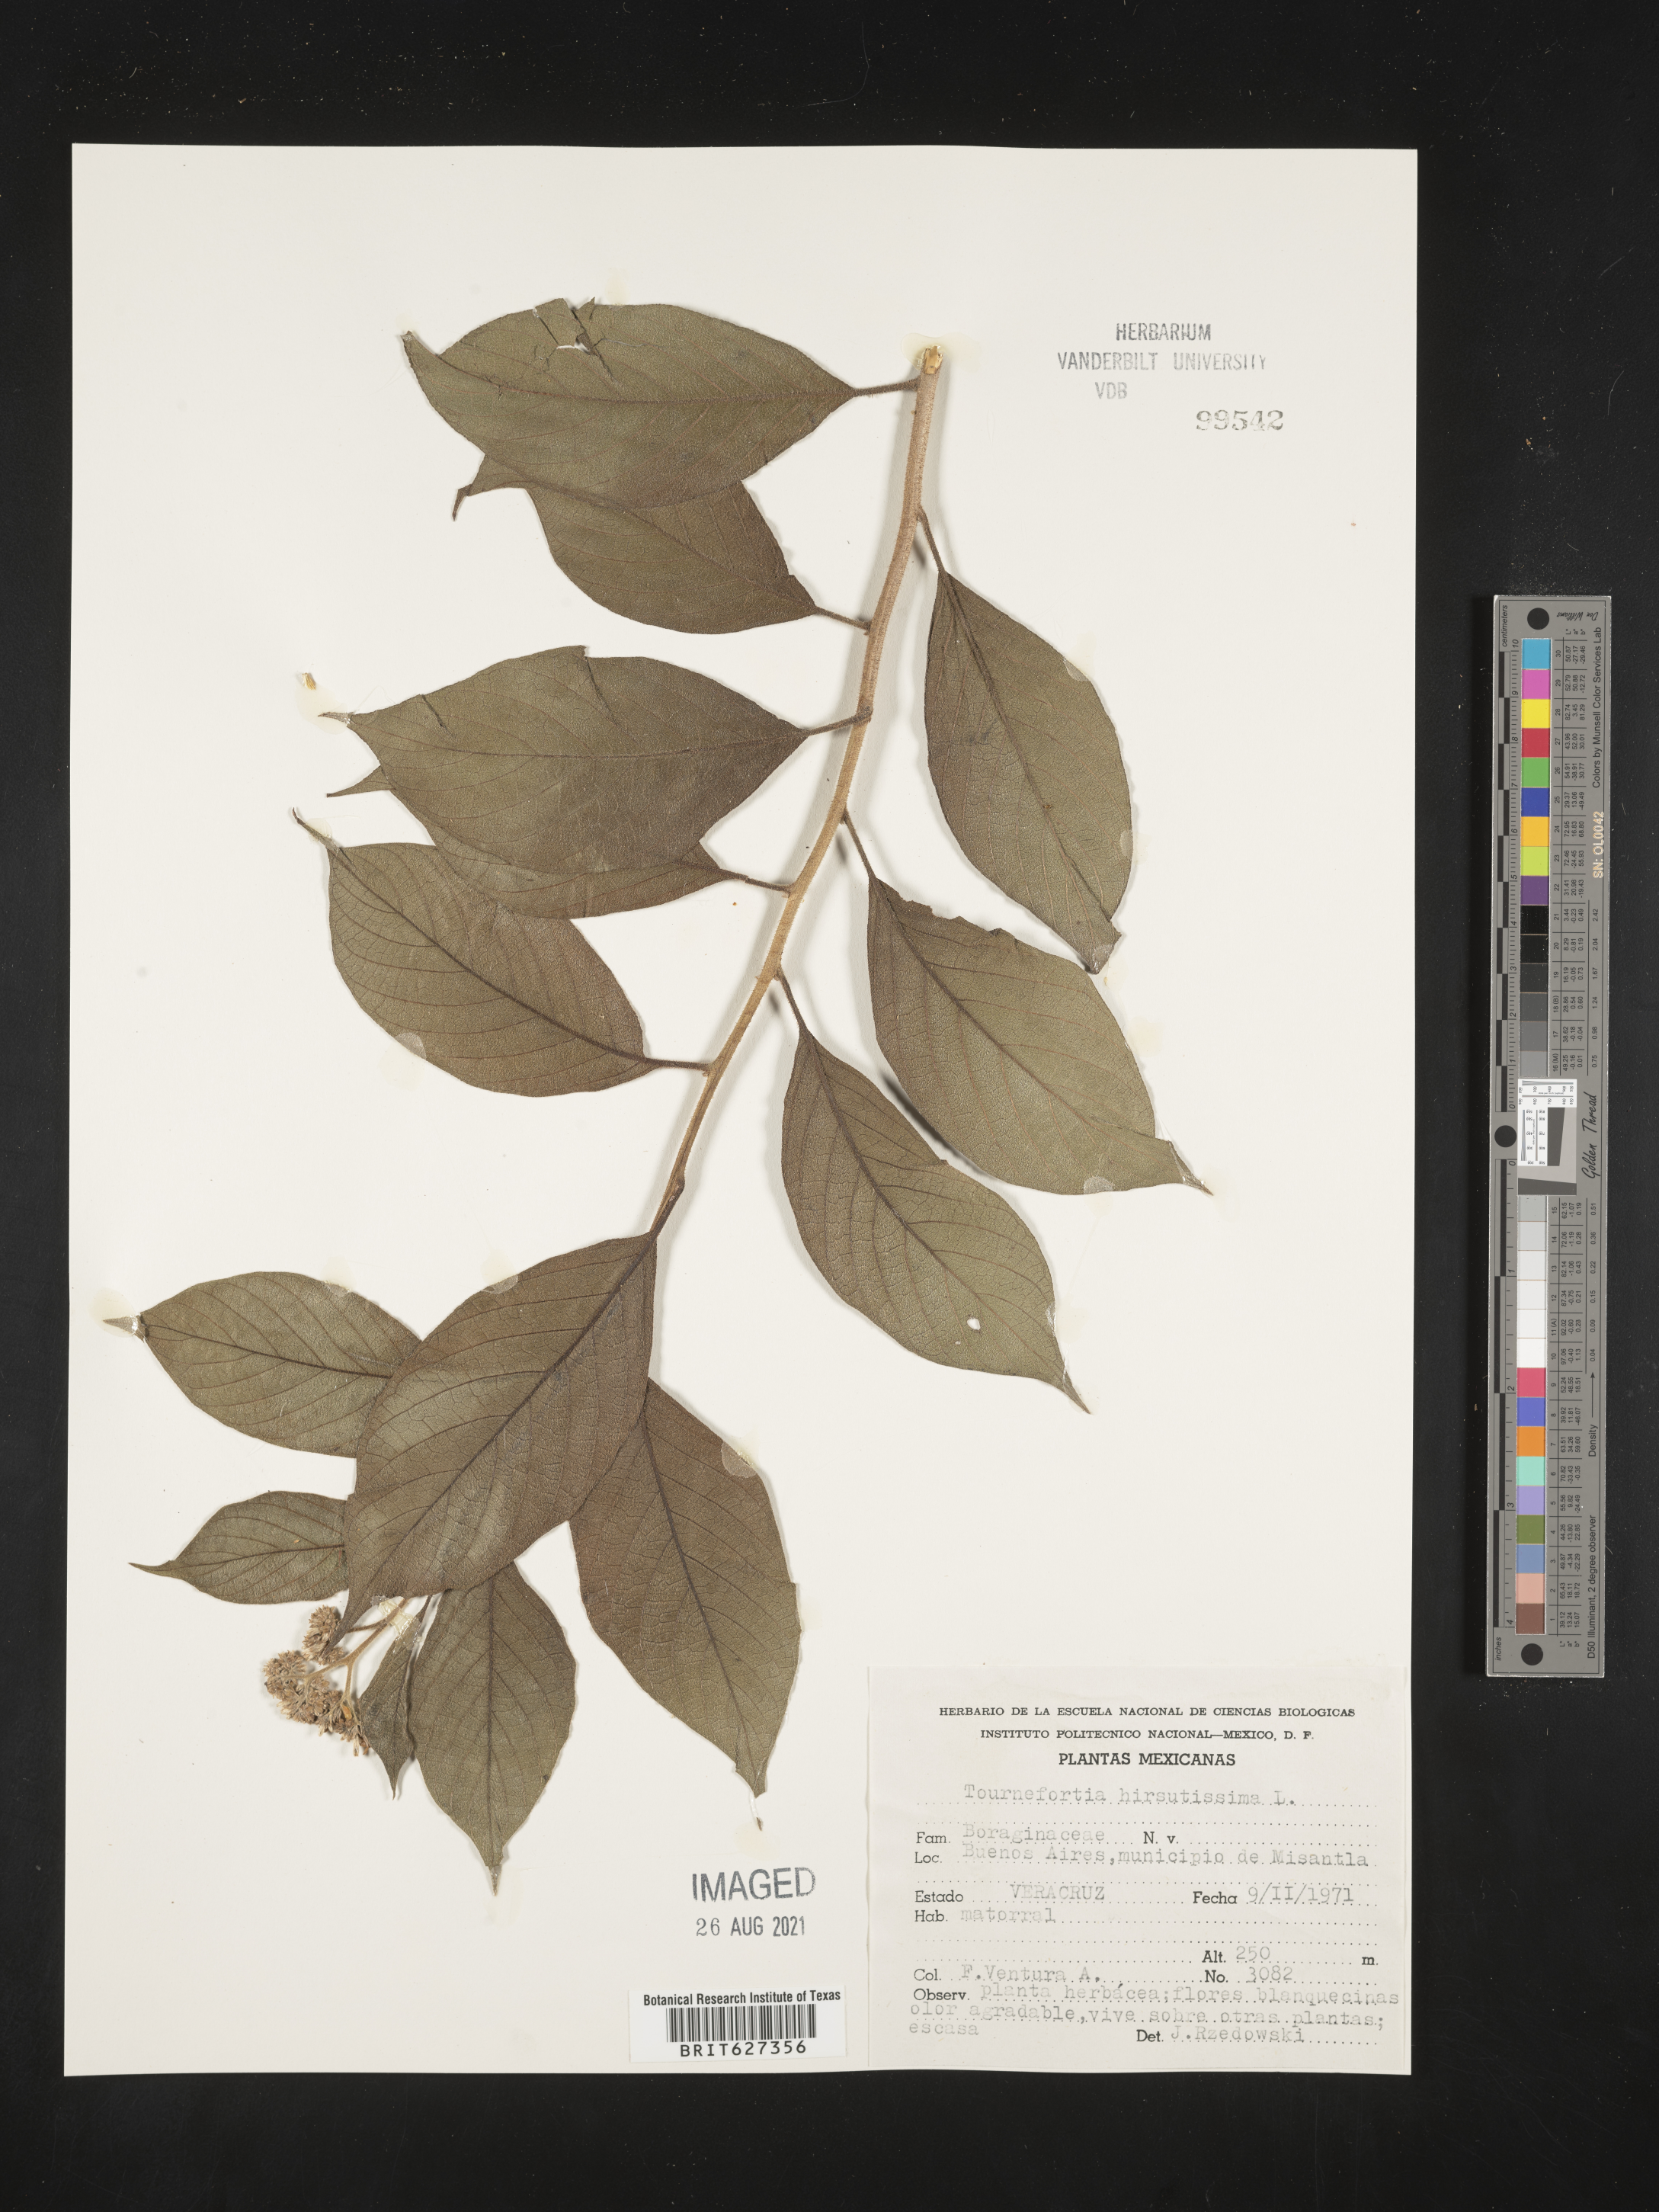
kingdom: Plantae
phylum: Tracheophyta
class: Magnoliopsida
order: Boraginales
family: Heliotropiaceae
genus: Tournefortia
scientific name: Tournefortia
